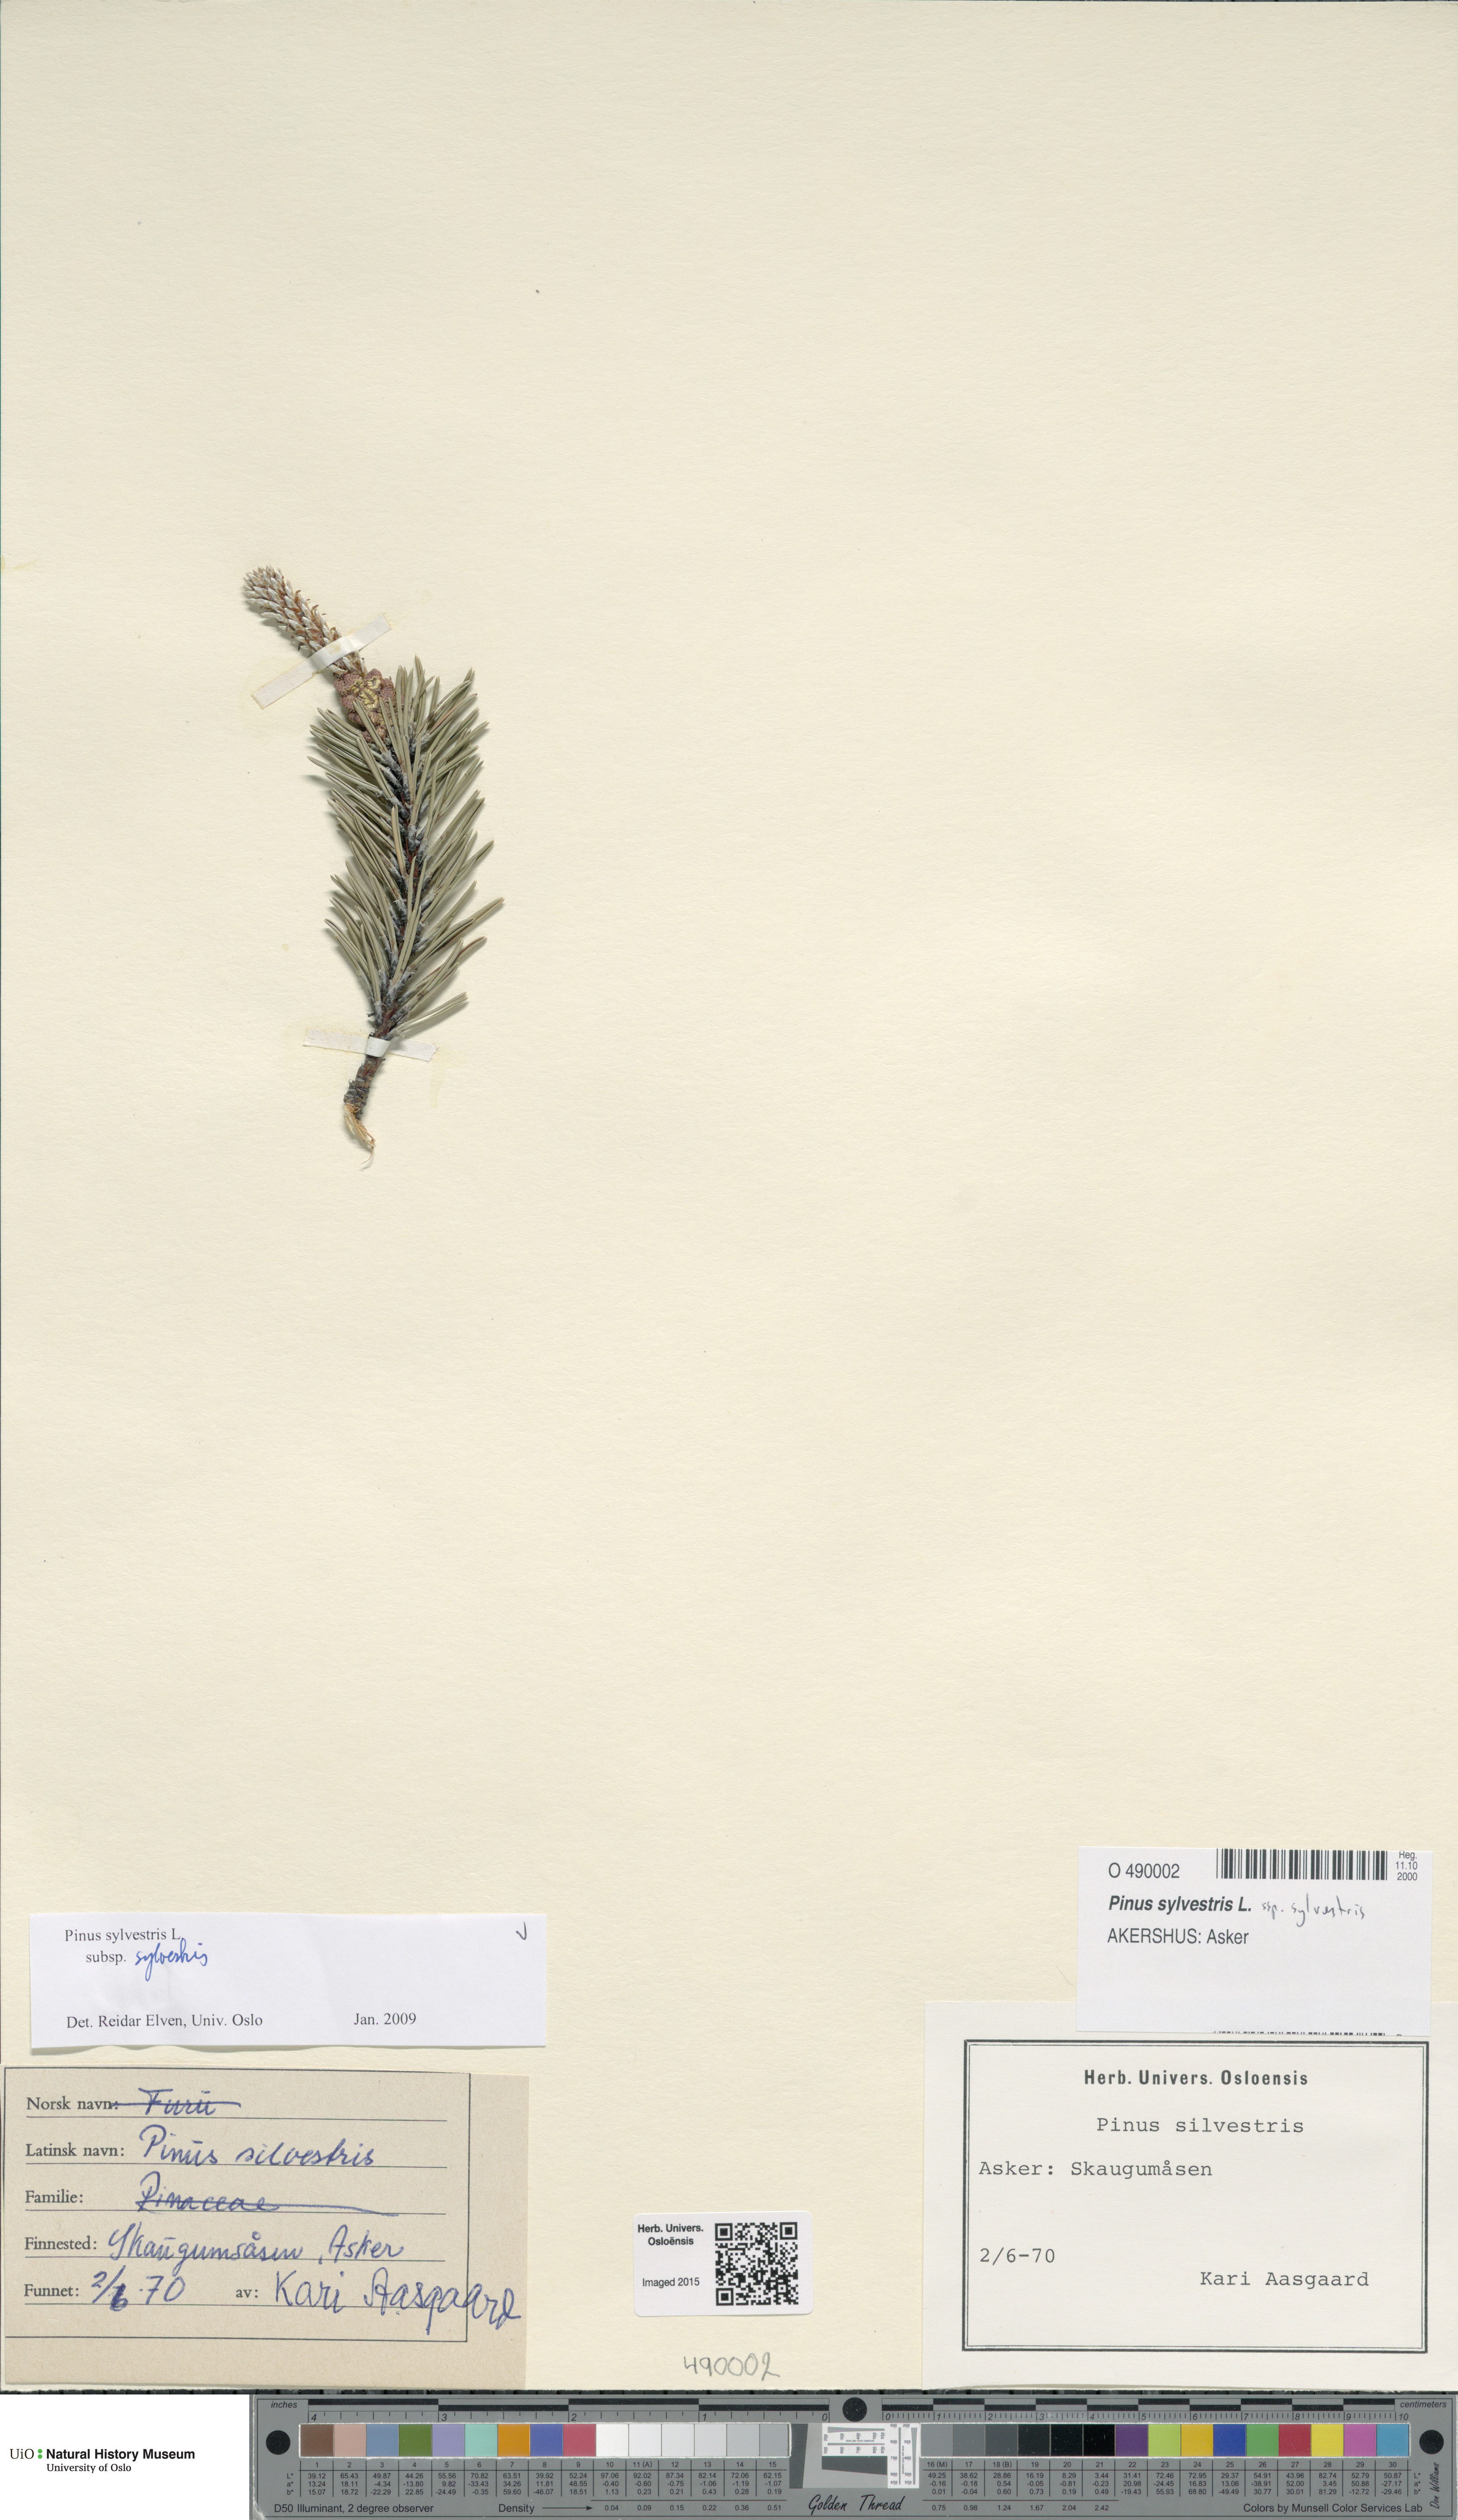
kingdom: Plantae
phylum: Tracheophyta
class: Pinopsida
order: Pinales
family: Pinaceae
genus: Pinus
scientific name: Pinus sylvestris
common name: Scots pine
